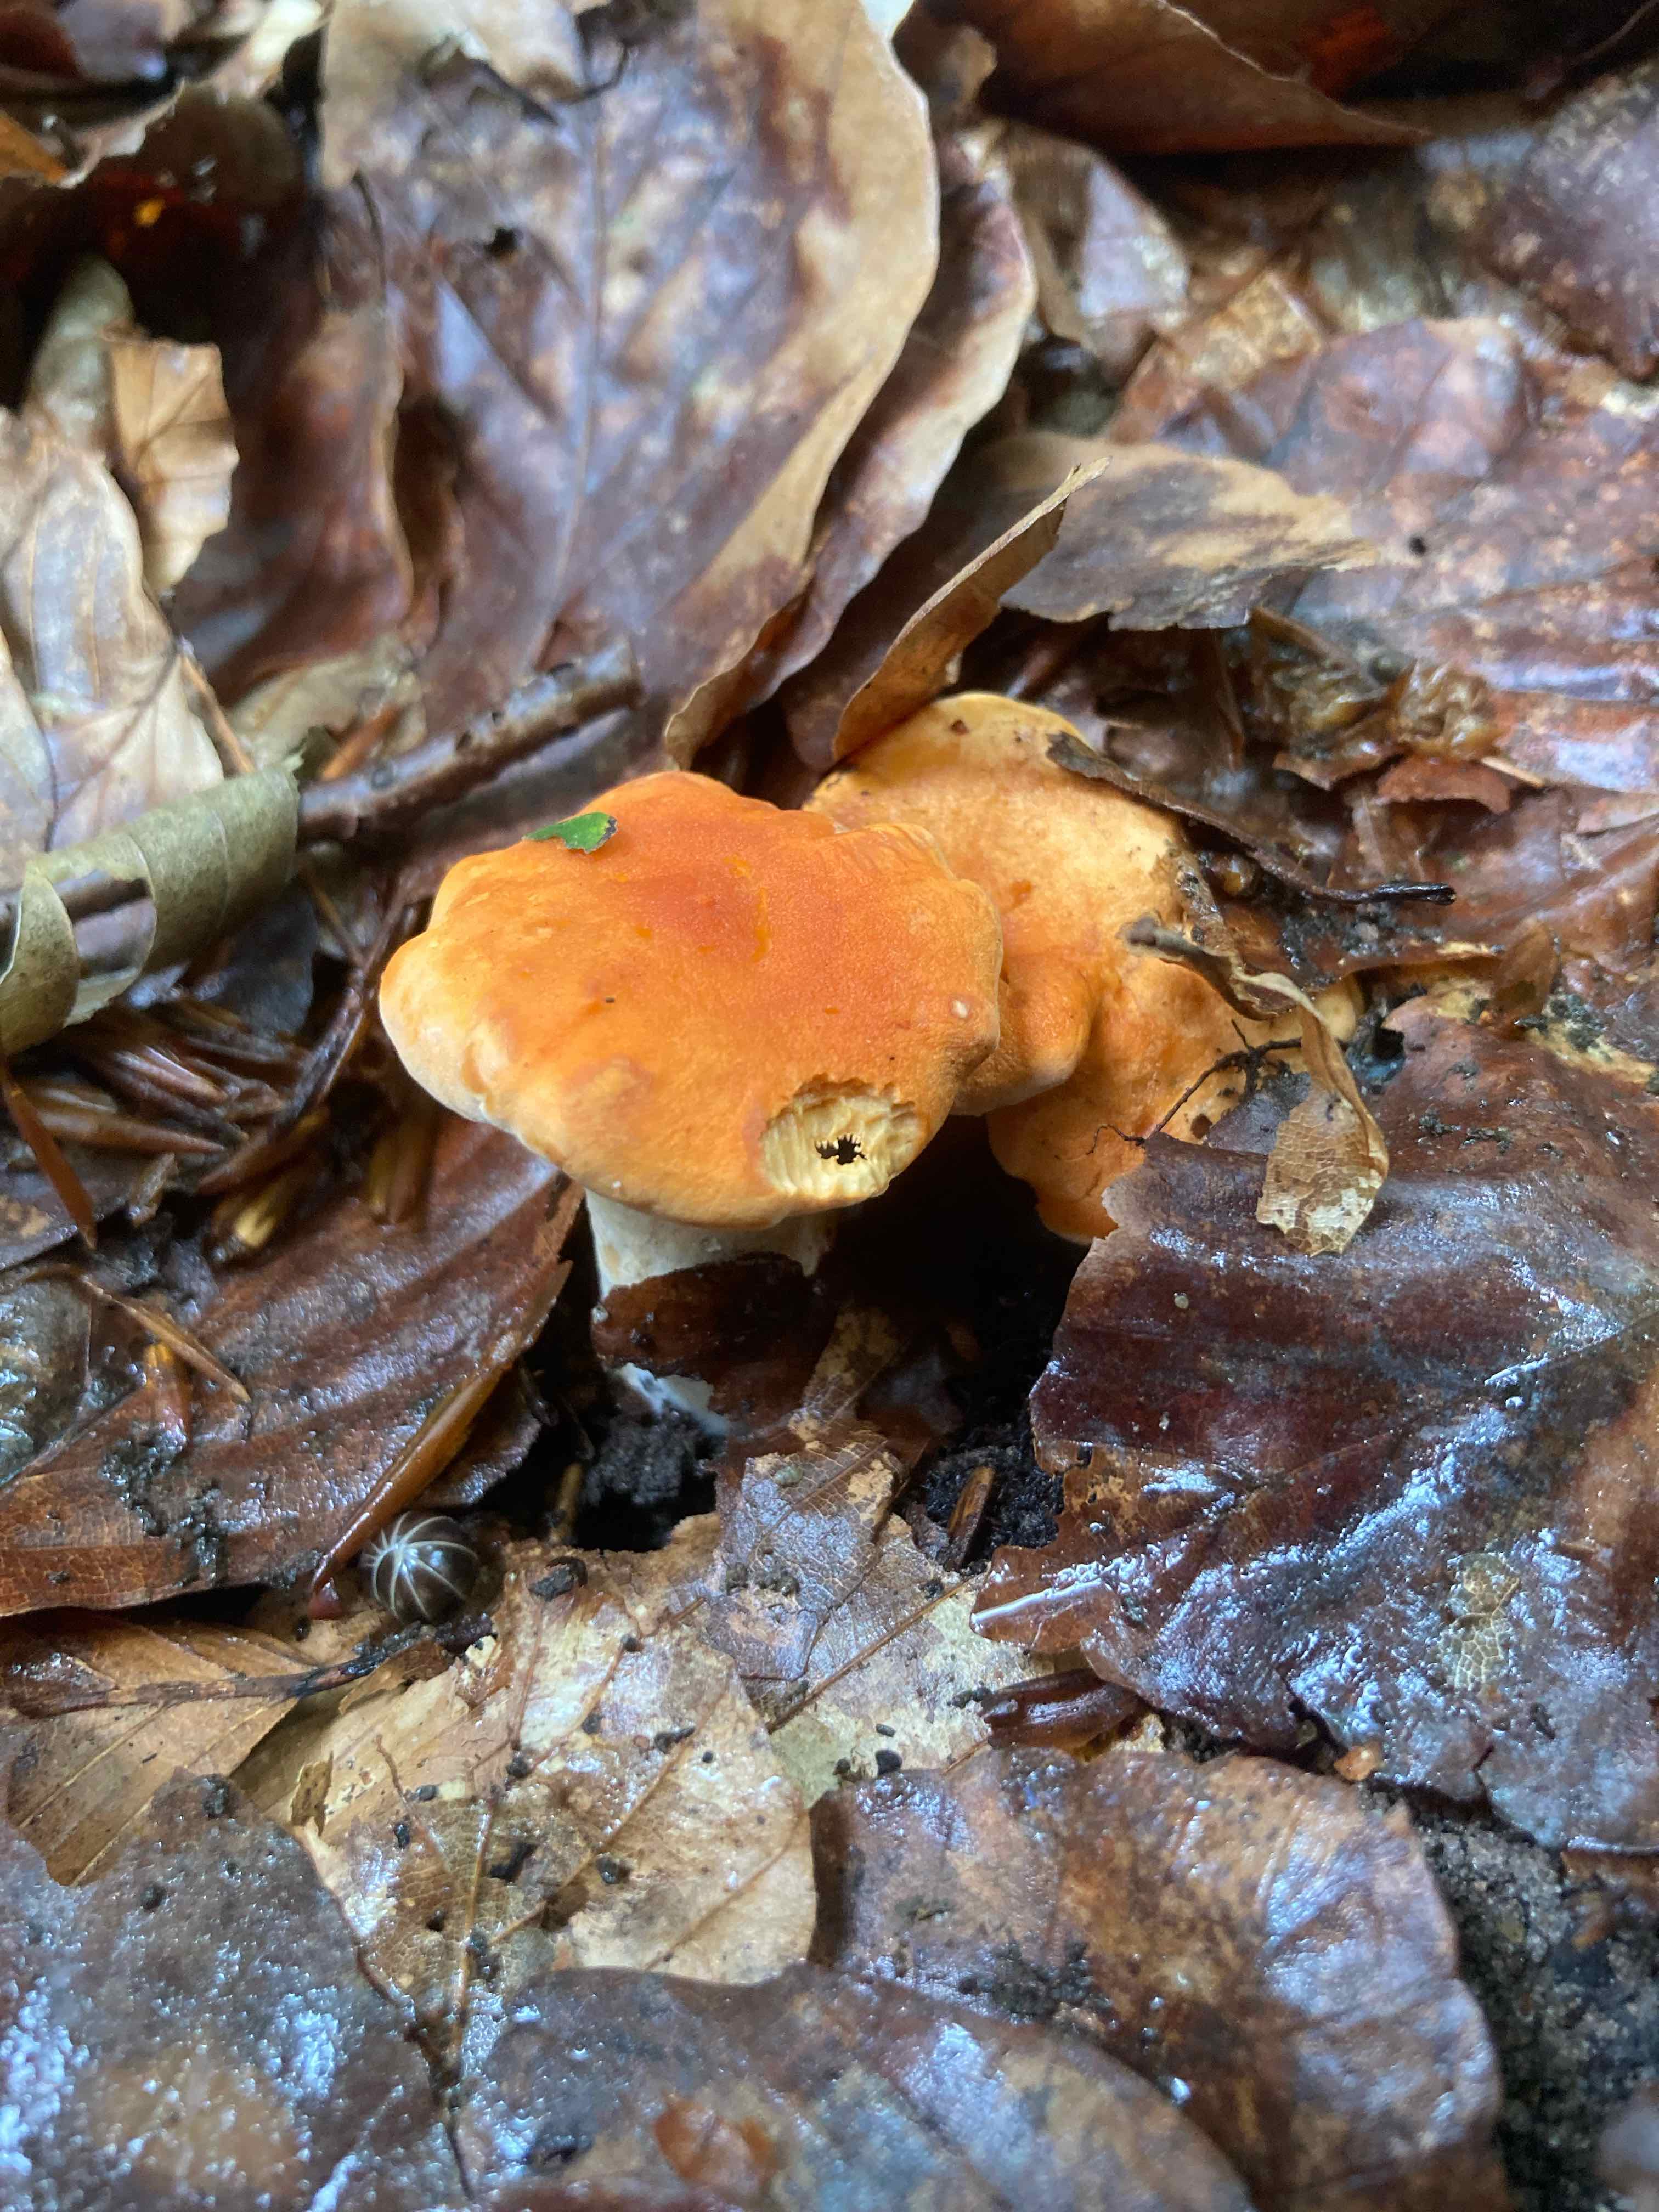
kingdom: Fungi
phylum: Basidiomycota
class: Agaricomycetes
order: Cantharellales
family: Hydnaceae
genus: Hydnum
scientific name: Hydnum rufescens
